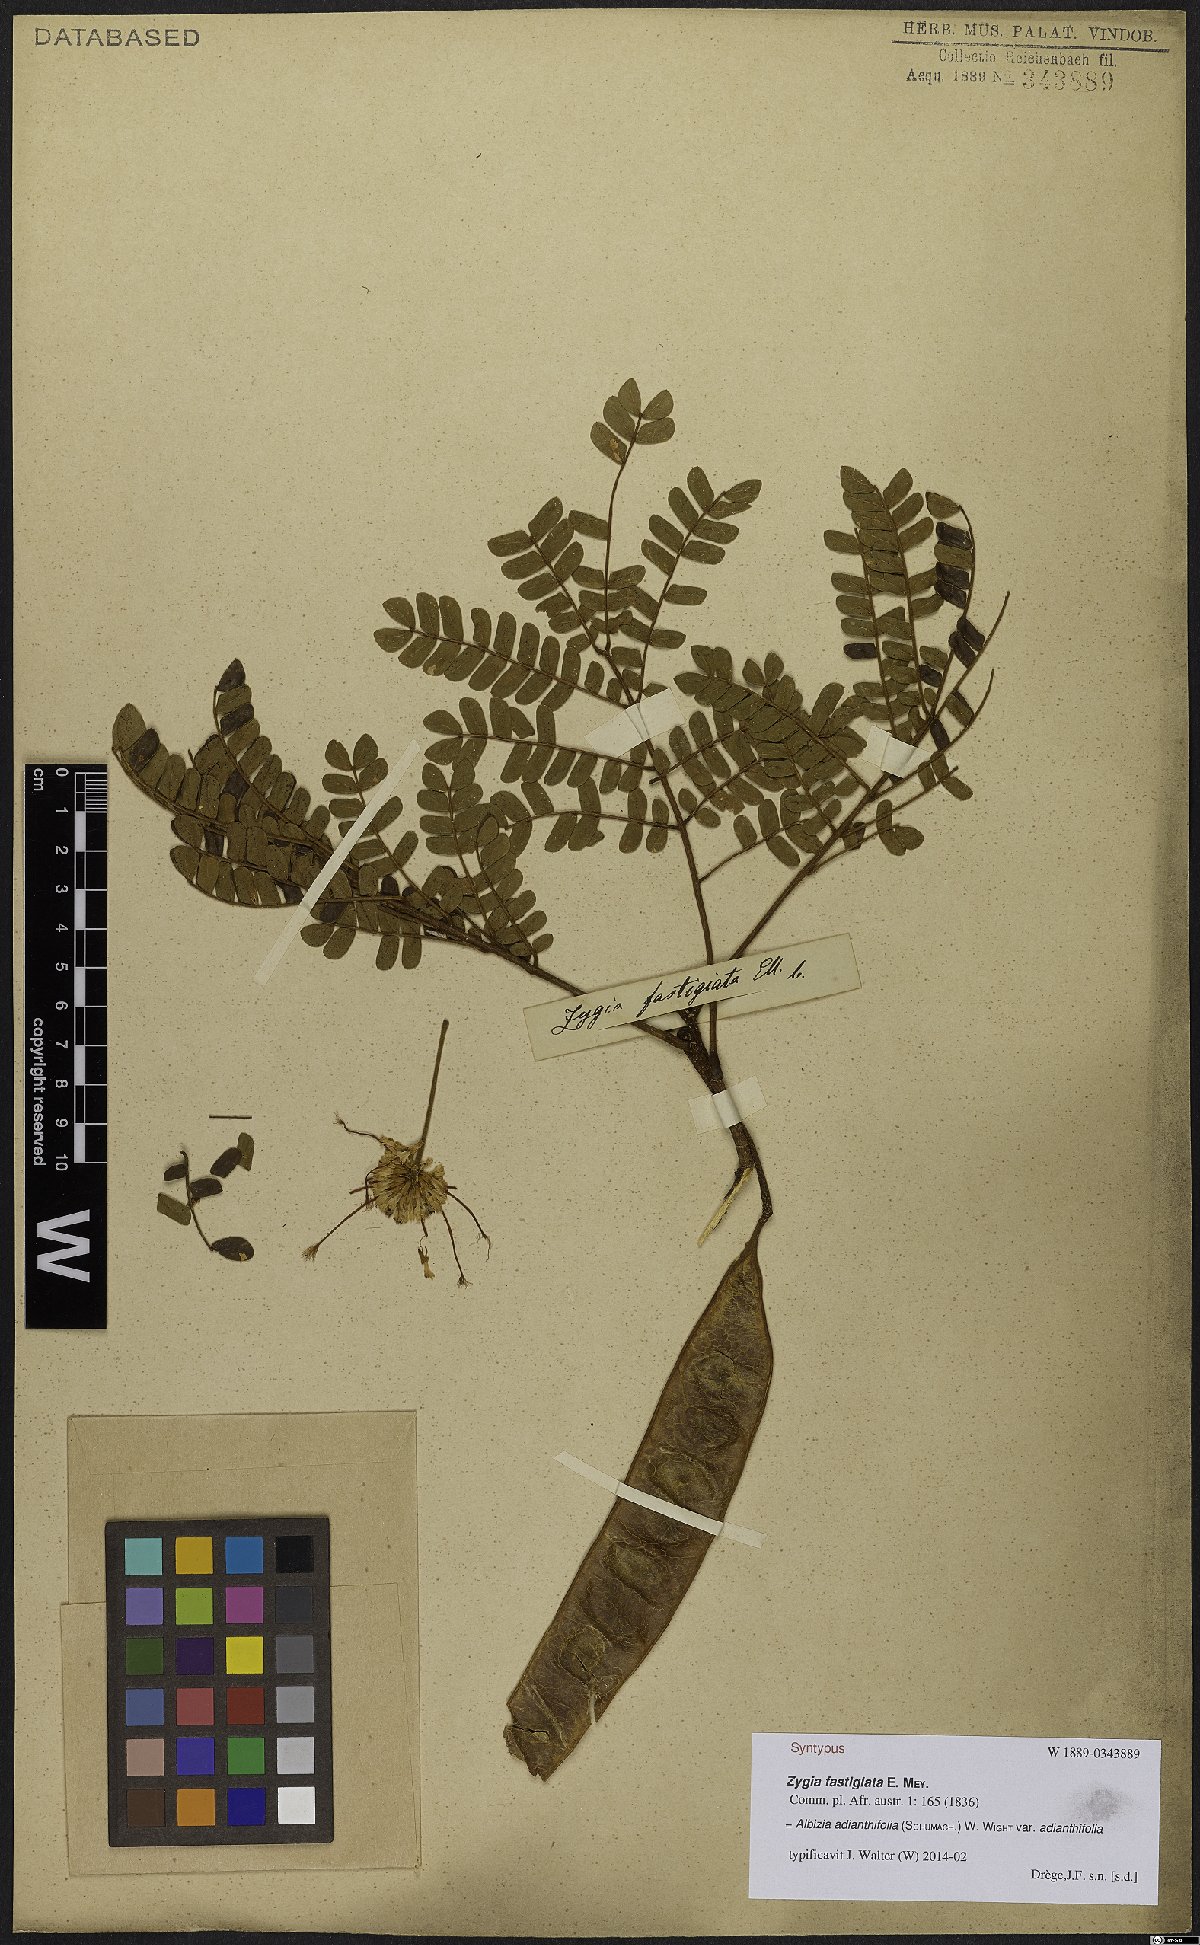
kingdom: Plantae
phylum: Tracheophyta
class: Magnoliopsida
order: Fabales
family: Fabaceae
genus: Albizia
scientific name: Albizia adianthifolia
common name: West african albizia
